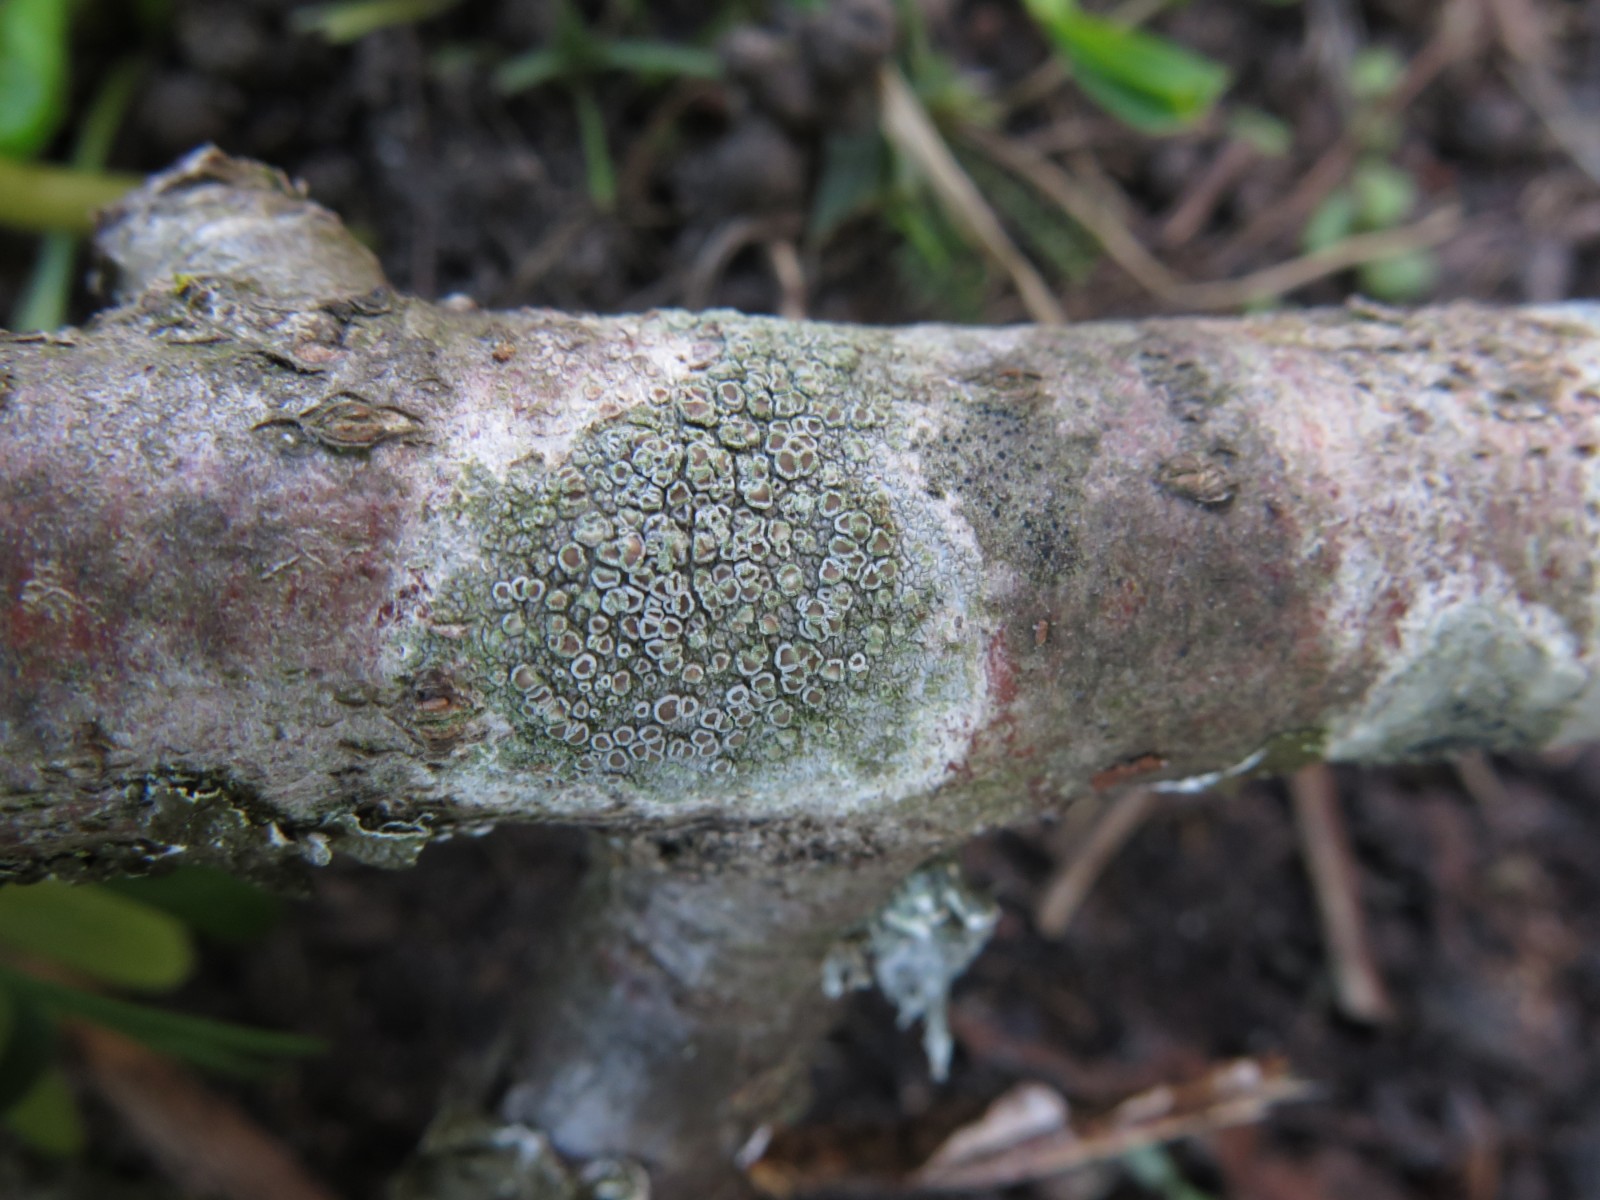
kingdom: Fungi
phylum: Ascomycota
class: Lecanoromycetes
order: Lecanorales
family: Lecanoraceae
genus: Lecanora
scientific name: Lecanora chlarotera
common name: brun kantskivelav
